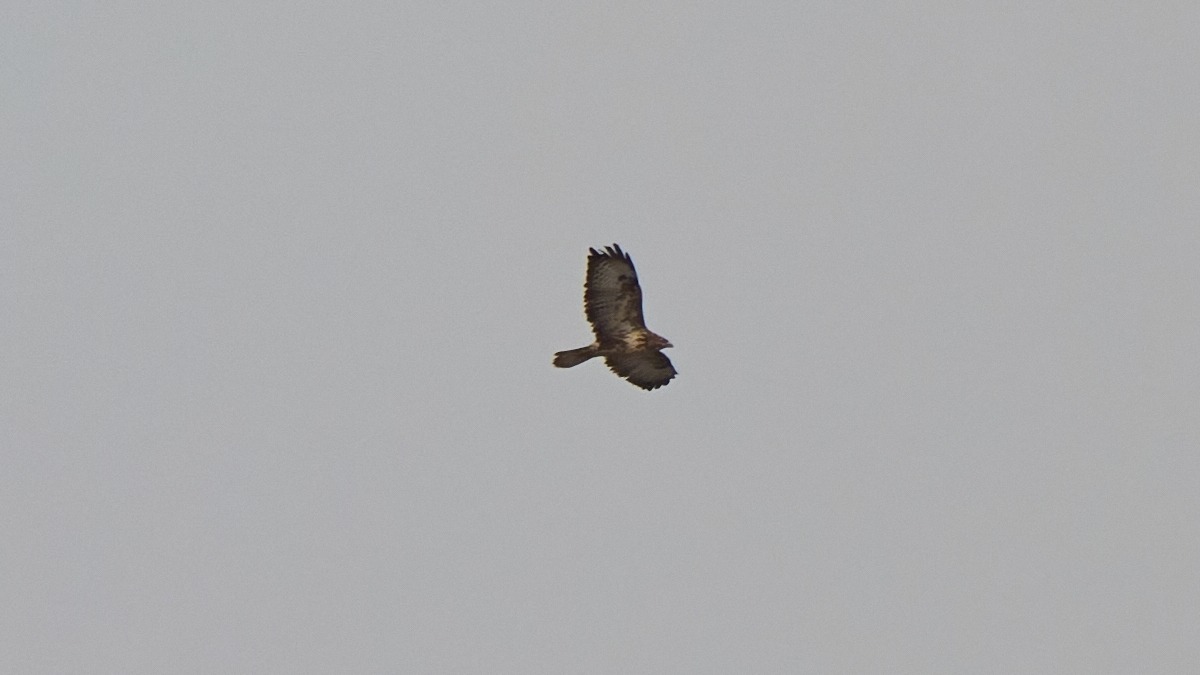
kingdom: Animalia
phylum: Chordata
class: Aves
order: Accipitriformes
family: Accipitridae
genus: Buteo
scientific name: Buteo buteo
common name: Musvåge
